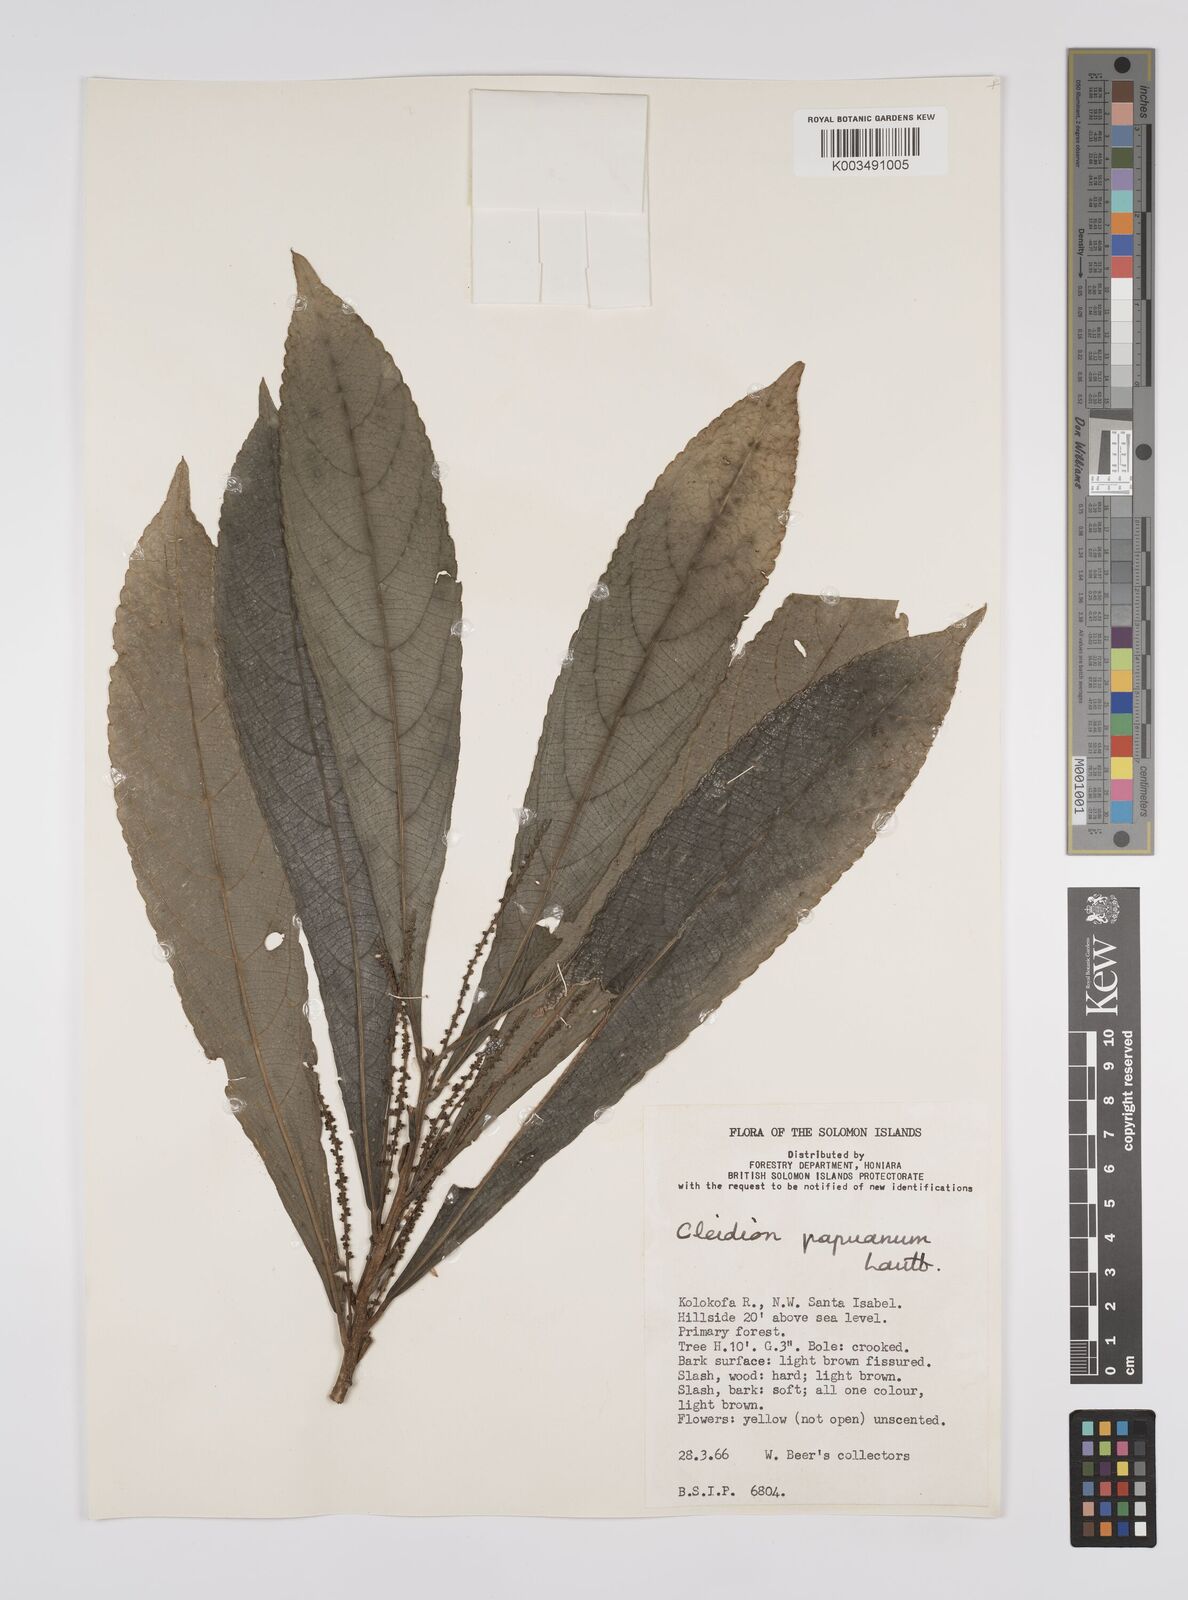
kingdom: Plantae
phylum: Tracheophyta
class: Magnoliopsida
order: Malpighiales
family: Euphorbiaceae
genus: Cleidion
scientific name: Cleidion papuanum
